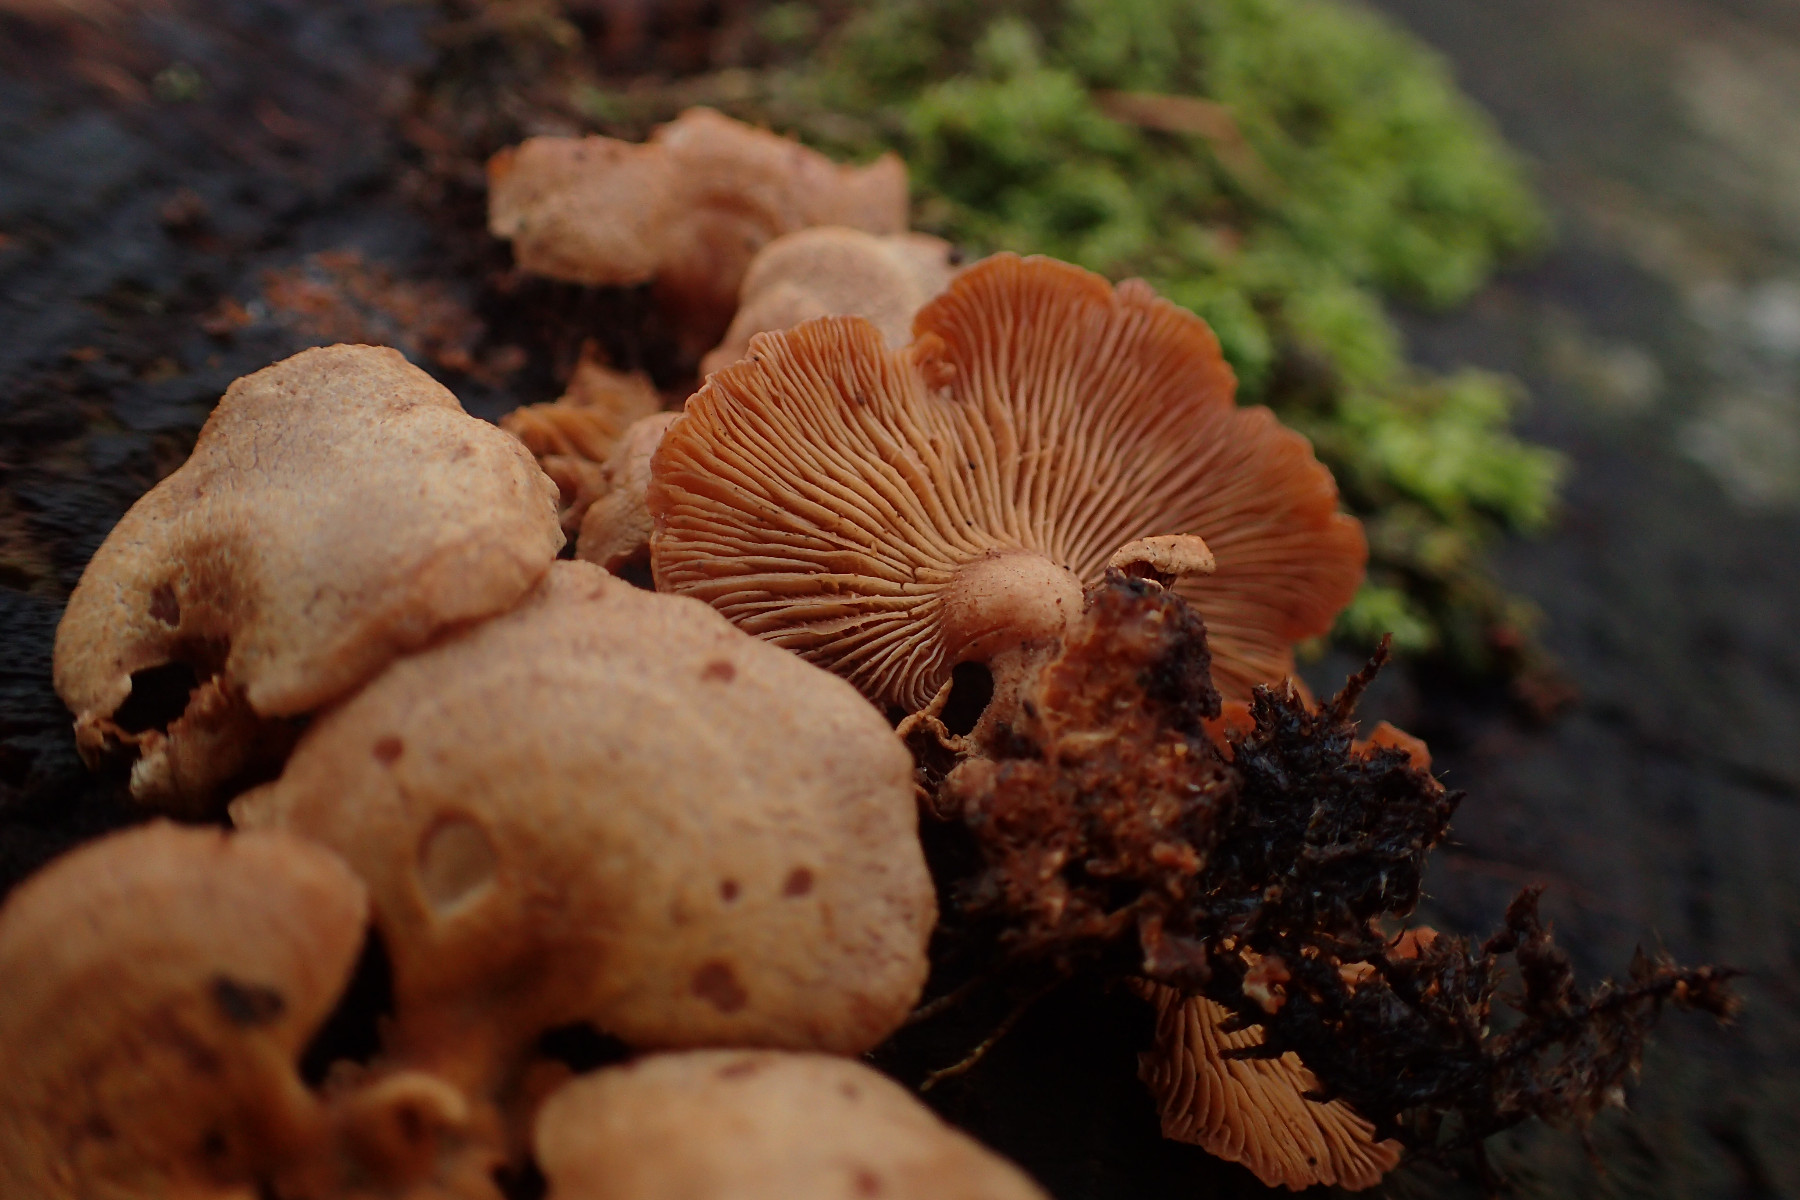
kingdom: Fungi
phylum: Basidiomycota
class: Agaricomycetes
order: Agaricales
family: Mycenaceae
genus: Panellus
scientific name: Panellus stipticus
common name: kliddet epaulethat
